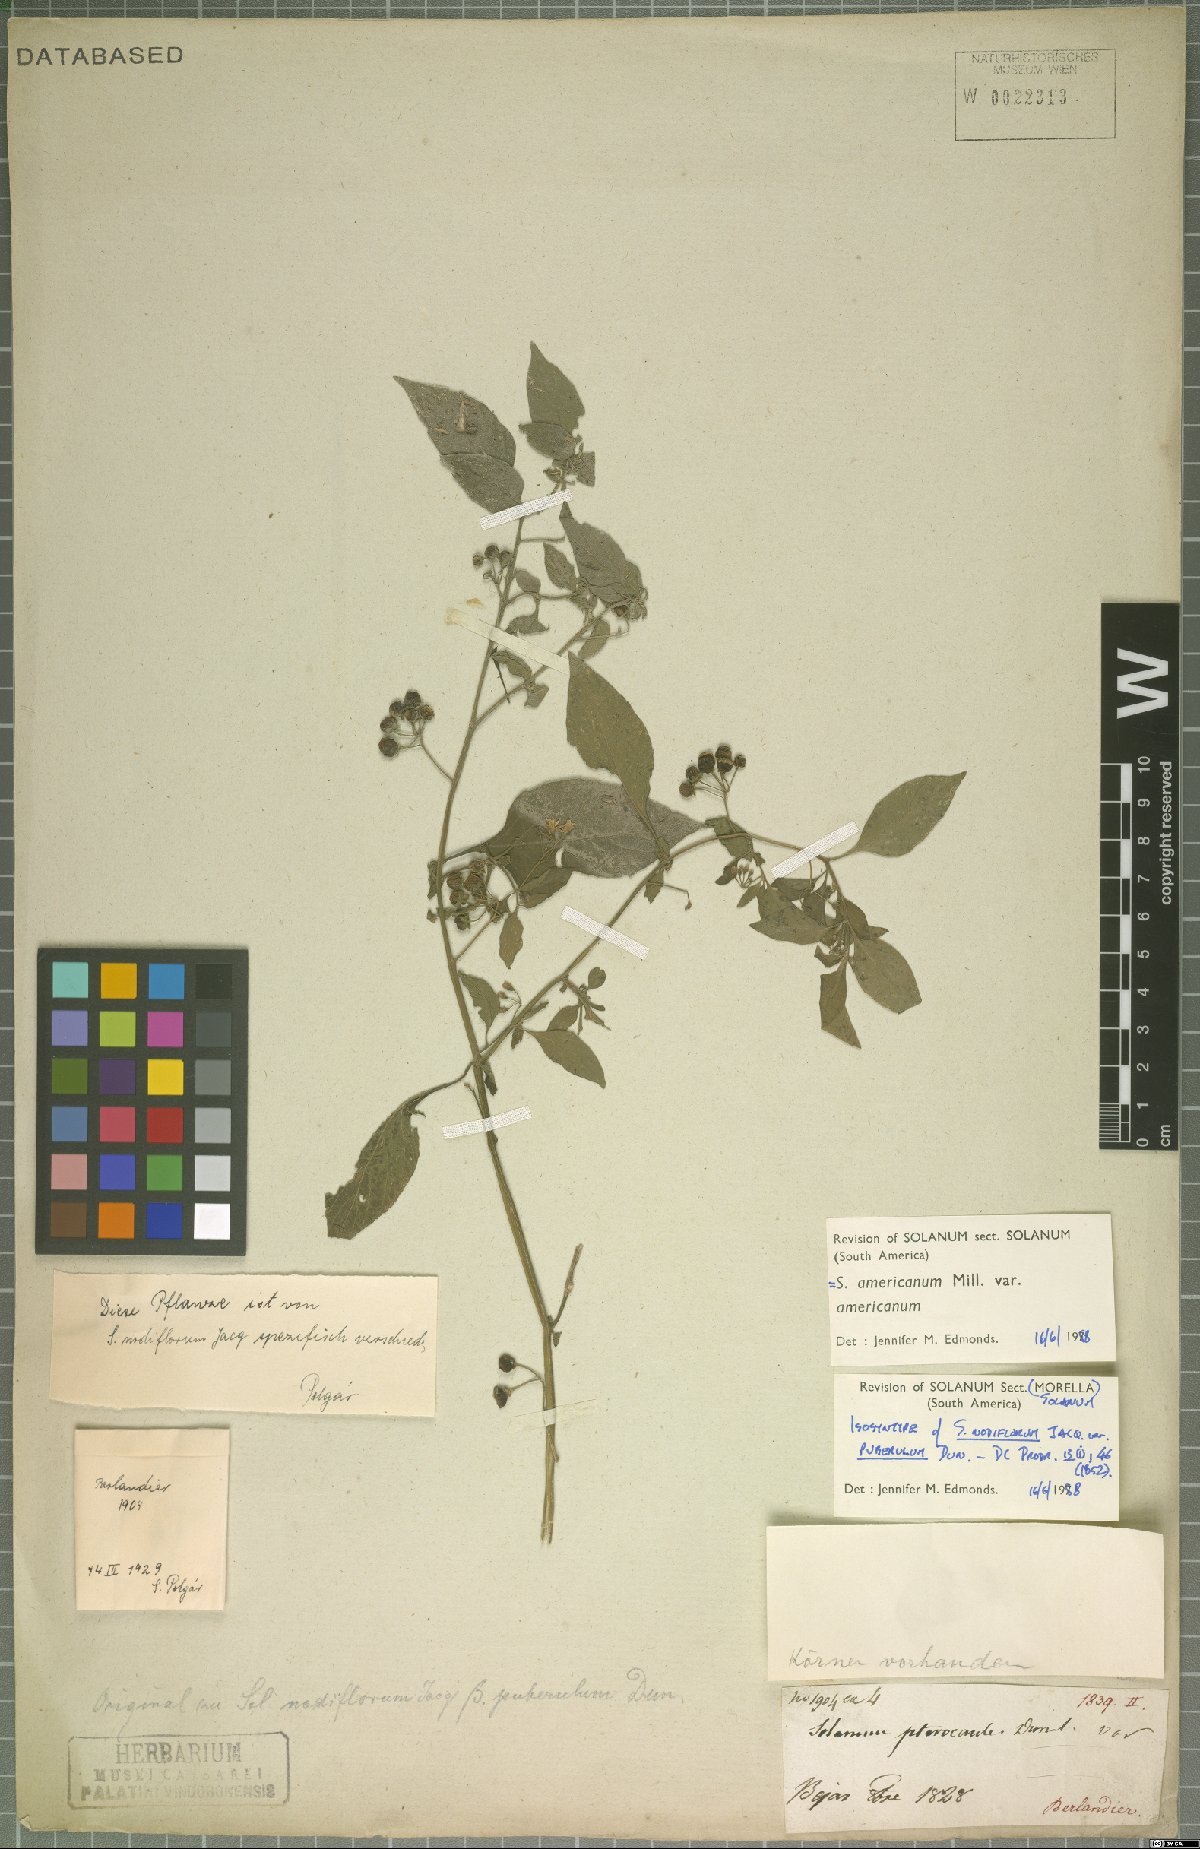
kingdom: Plantae
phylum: Tracheophyta
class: Magnoliopsida
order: Solanales
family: Solanaceae
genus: Solanum
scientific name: Solanum interius
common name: Plains black nightshade
